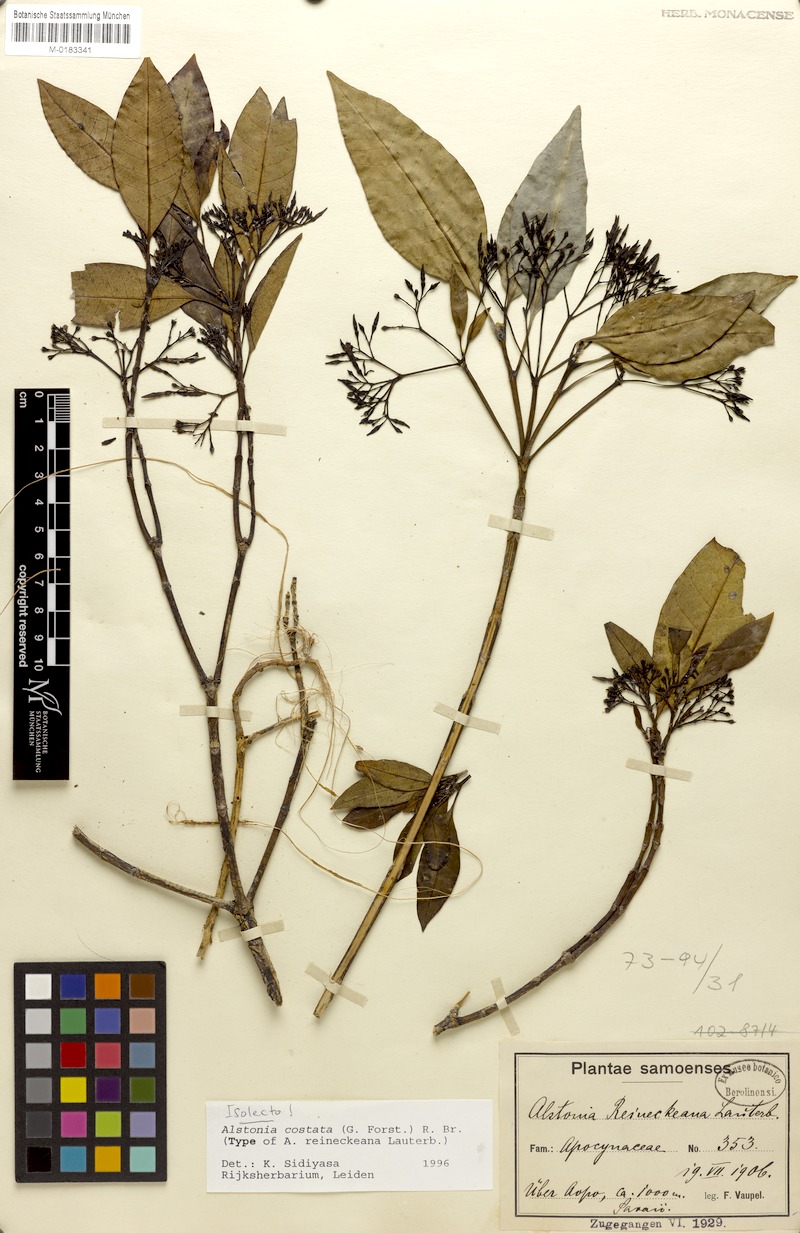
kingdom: Plantae
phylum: Tracheophyta
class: Magnoliopsida
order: Gentianales
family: Apocynaceae
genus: Alstonia
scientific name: Alstonia costata
